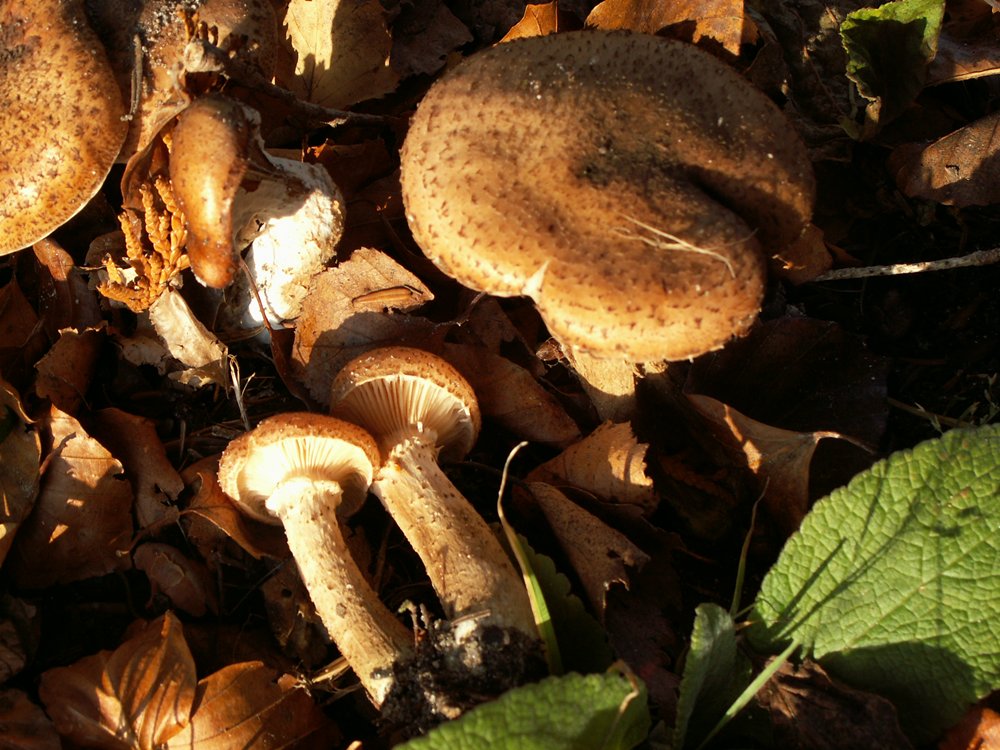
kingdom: Fungi
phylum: Basidiomycota
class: Agaricomycetes
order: Agaricales
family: Physalacriaceae
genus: Armillaria
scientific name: Armillaria ostoyae
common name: mørk honningsvamp
